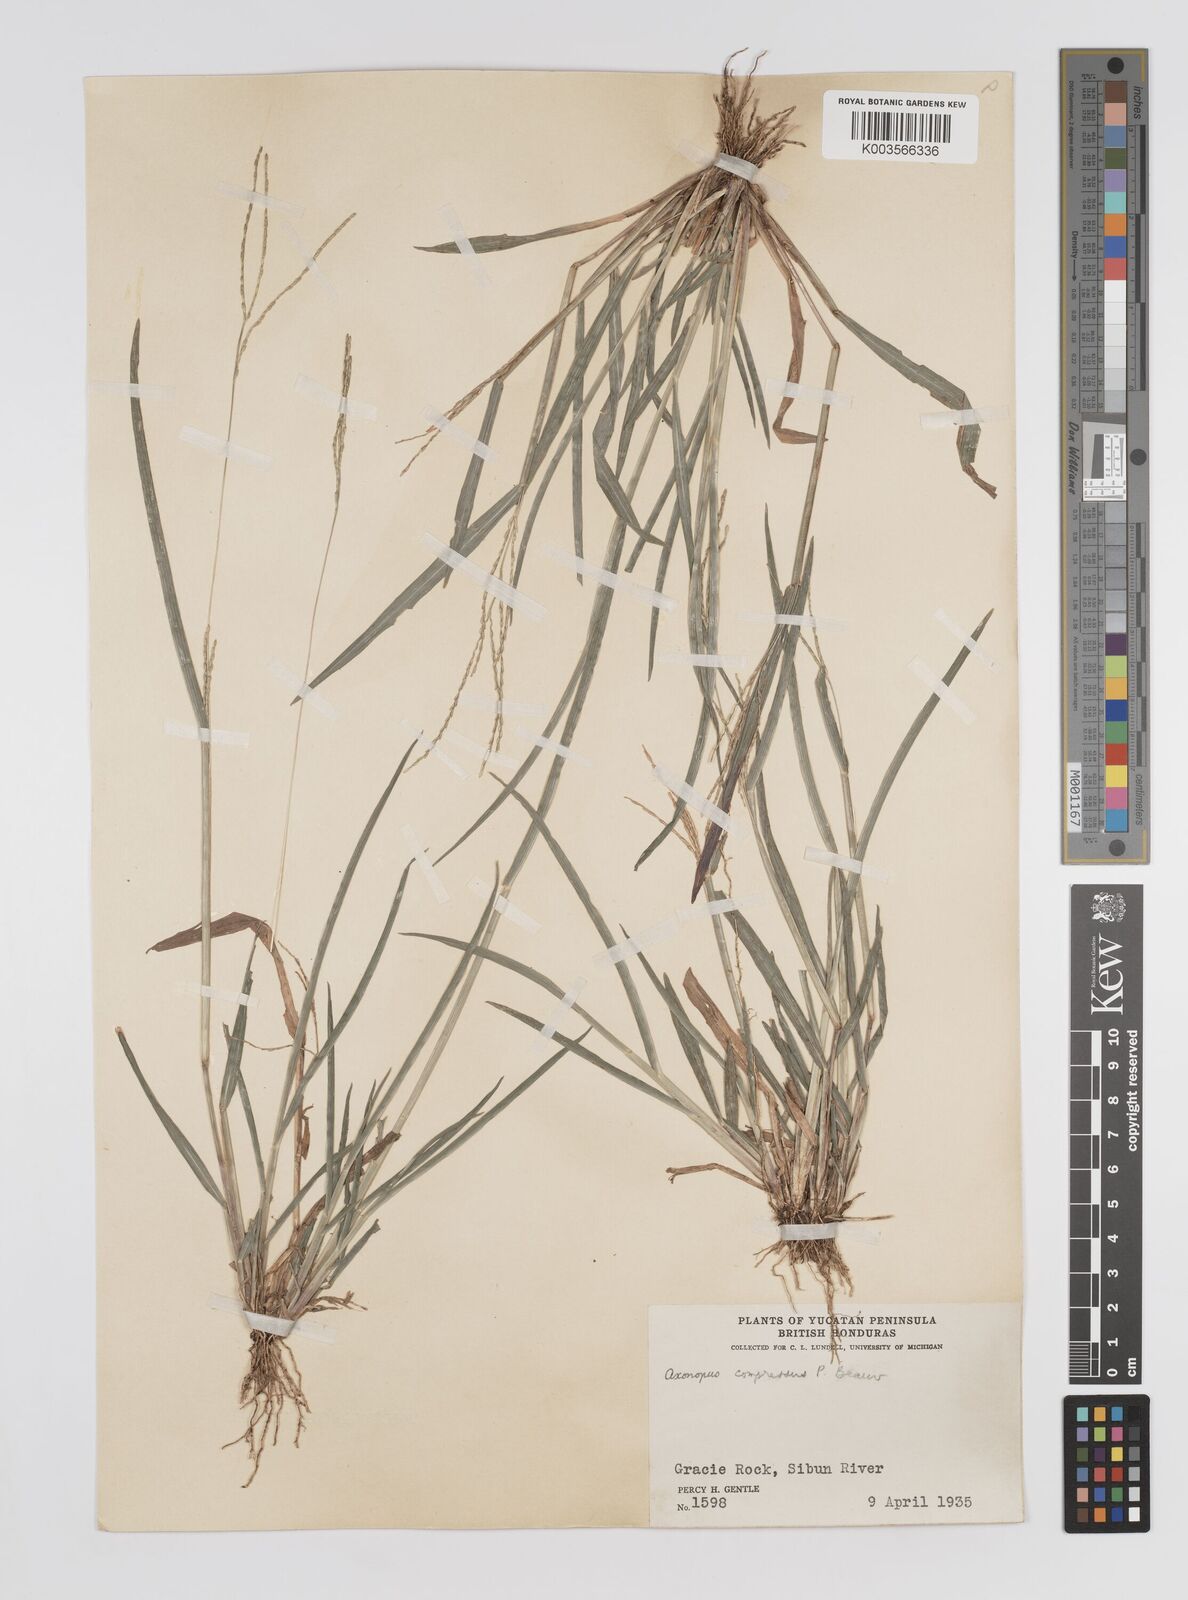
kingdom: Plantae
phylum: Tracheophyta
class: Liliopsida
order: Poales
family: Poaceae
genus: Axonopus
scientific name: Axonopus compressus
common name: American carpet grass
